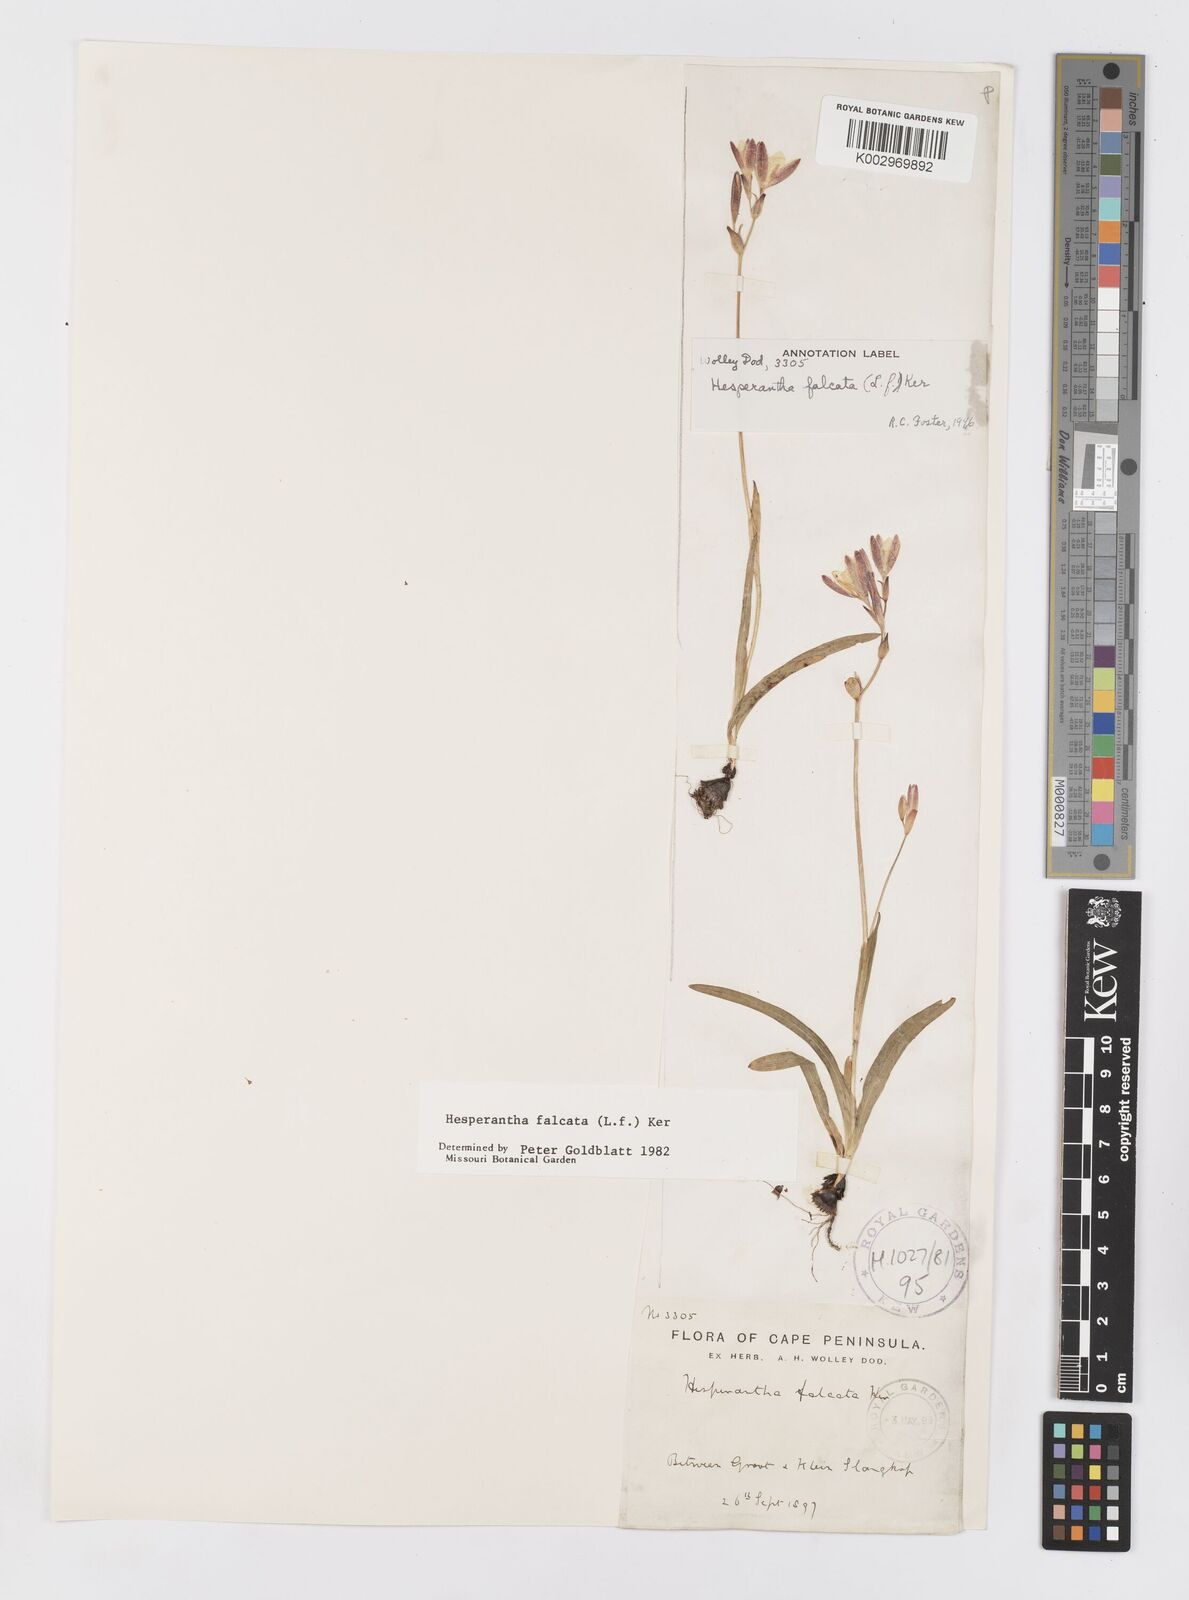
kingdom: Plantae
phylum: Tracheophyta
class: Liliopsida
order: Asparagales
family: Iridaceae
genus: Hesperantha
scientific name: Hesperantha falcata
